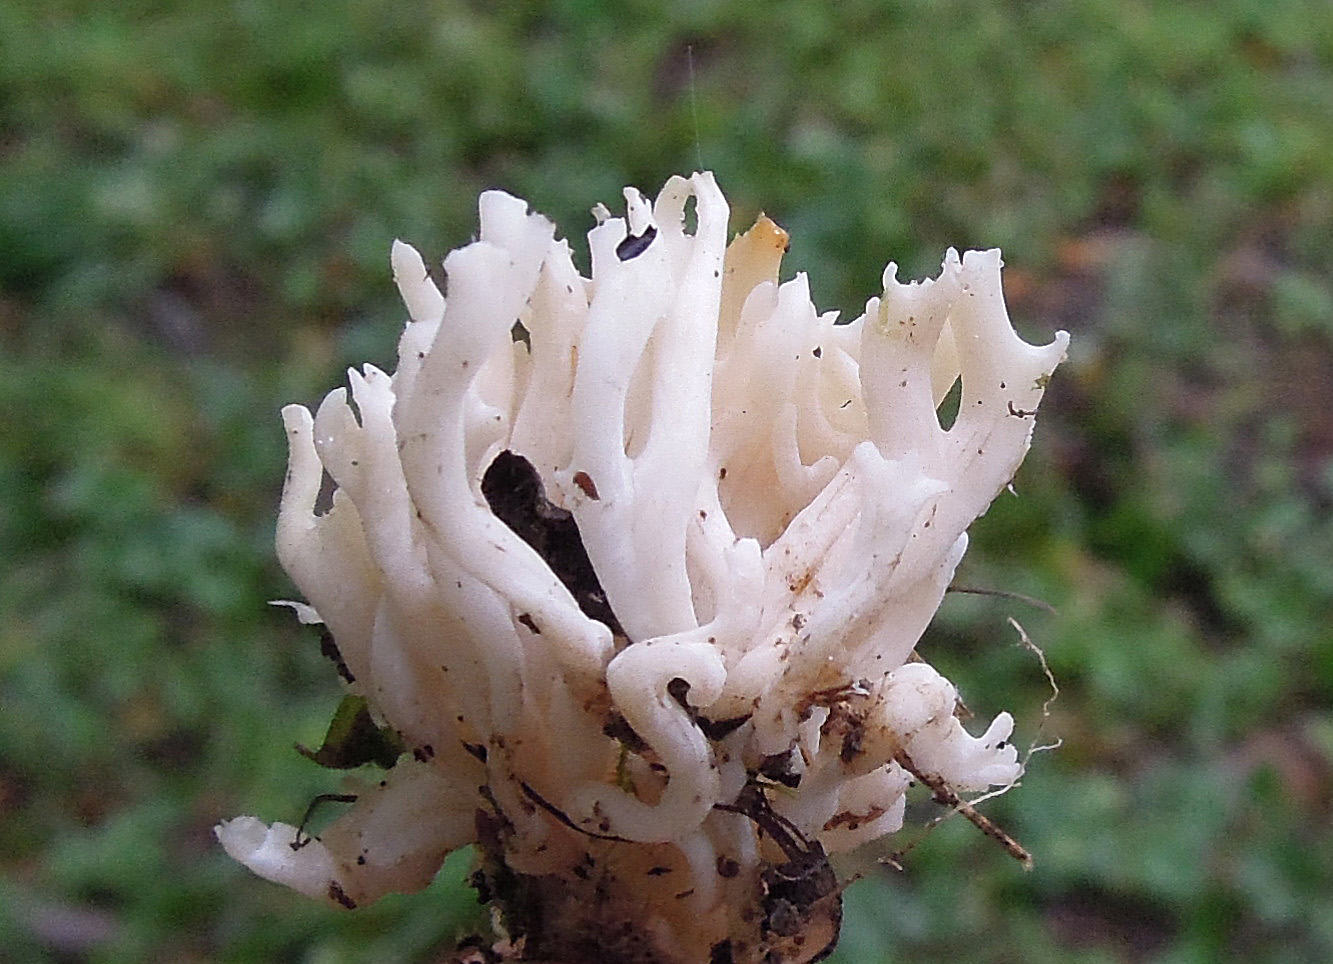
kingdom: Fungi
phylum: Basidiomycota
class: Agaricomycetes
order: Agaricales
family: Clavariaceae
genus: Ramariopsis
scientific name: Ramariopsis robusta
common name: tykgrenet køllesvamp
